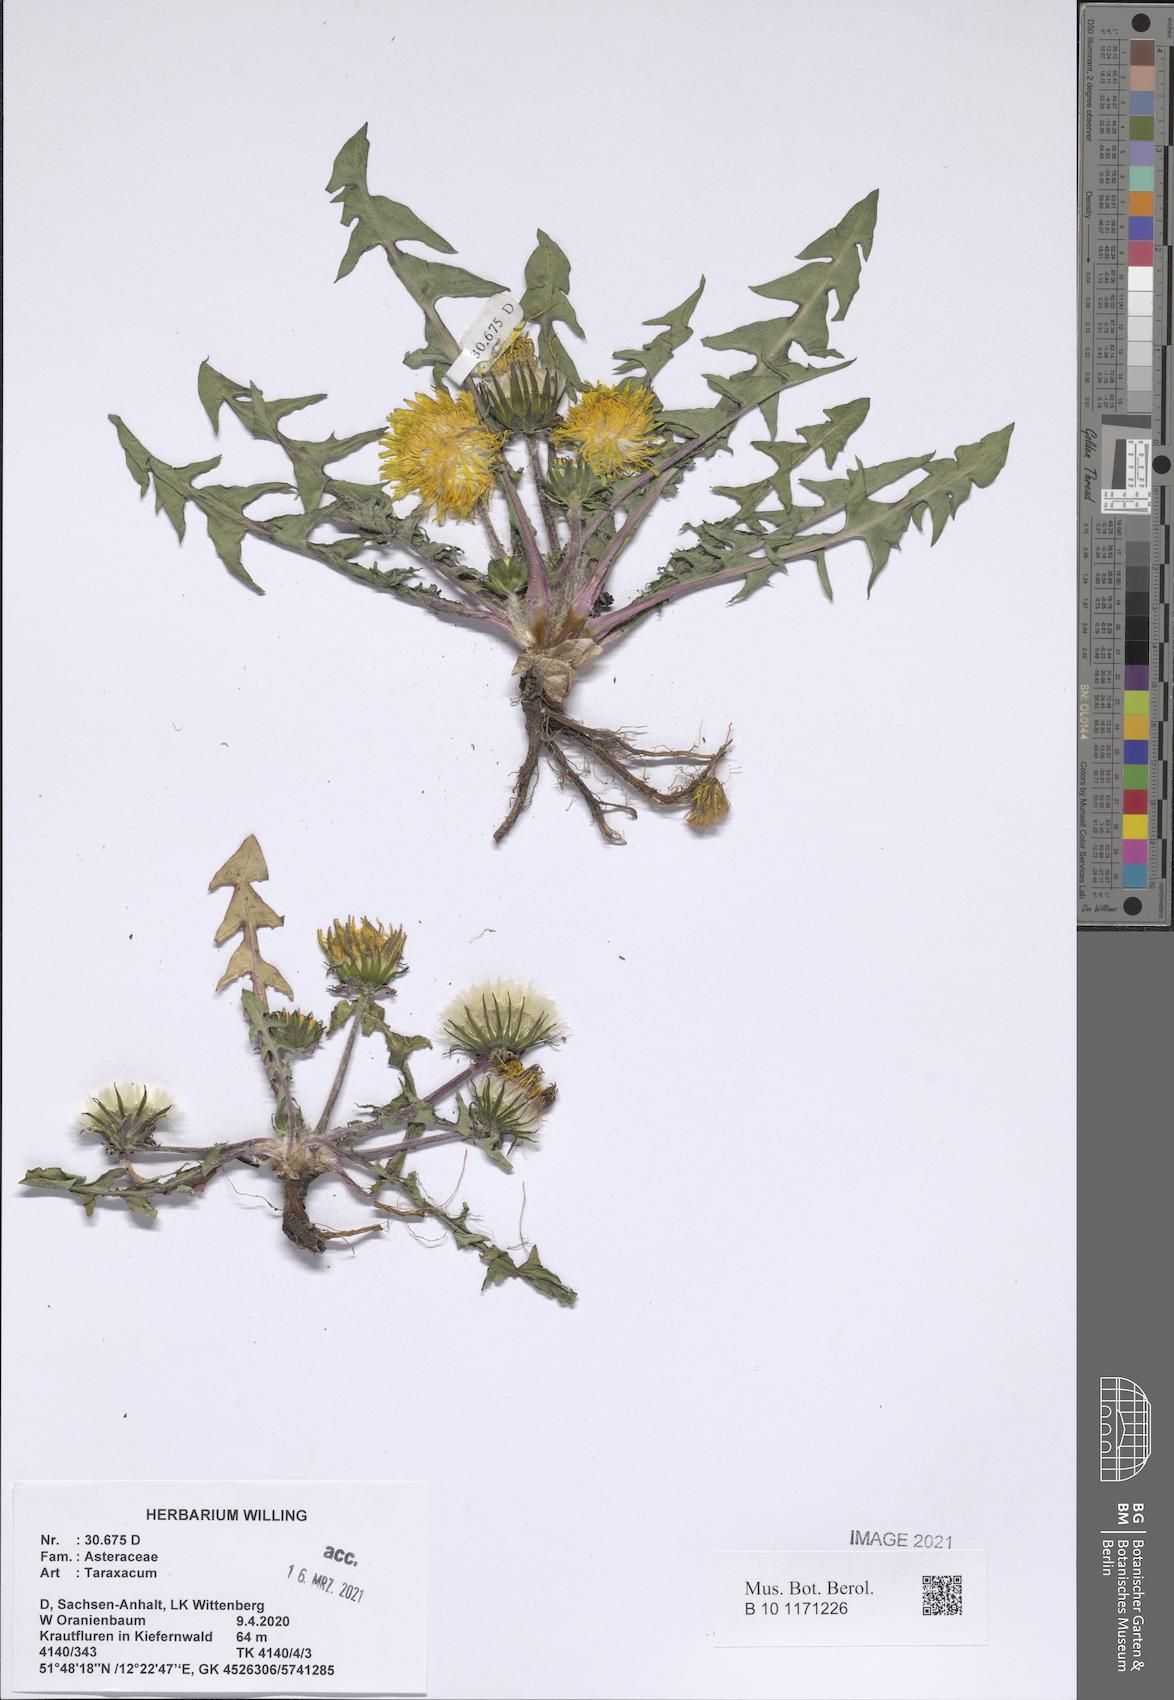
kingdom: Plantae
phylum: Tracheophyta
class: Magnoliopsida
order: Asterales
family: Asteraceae
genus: Taraxacum
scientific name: Taraxacum
